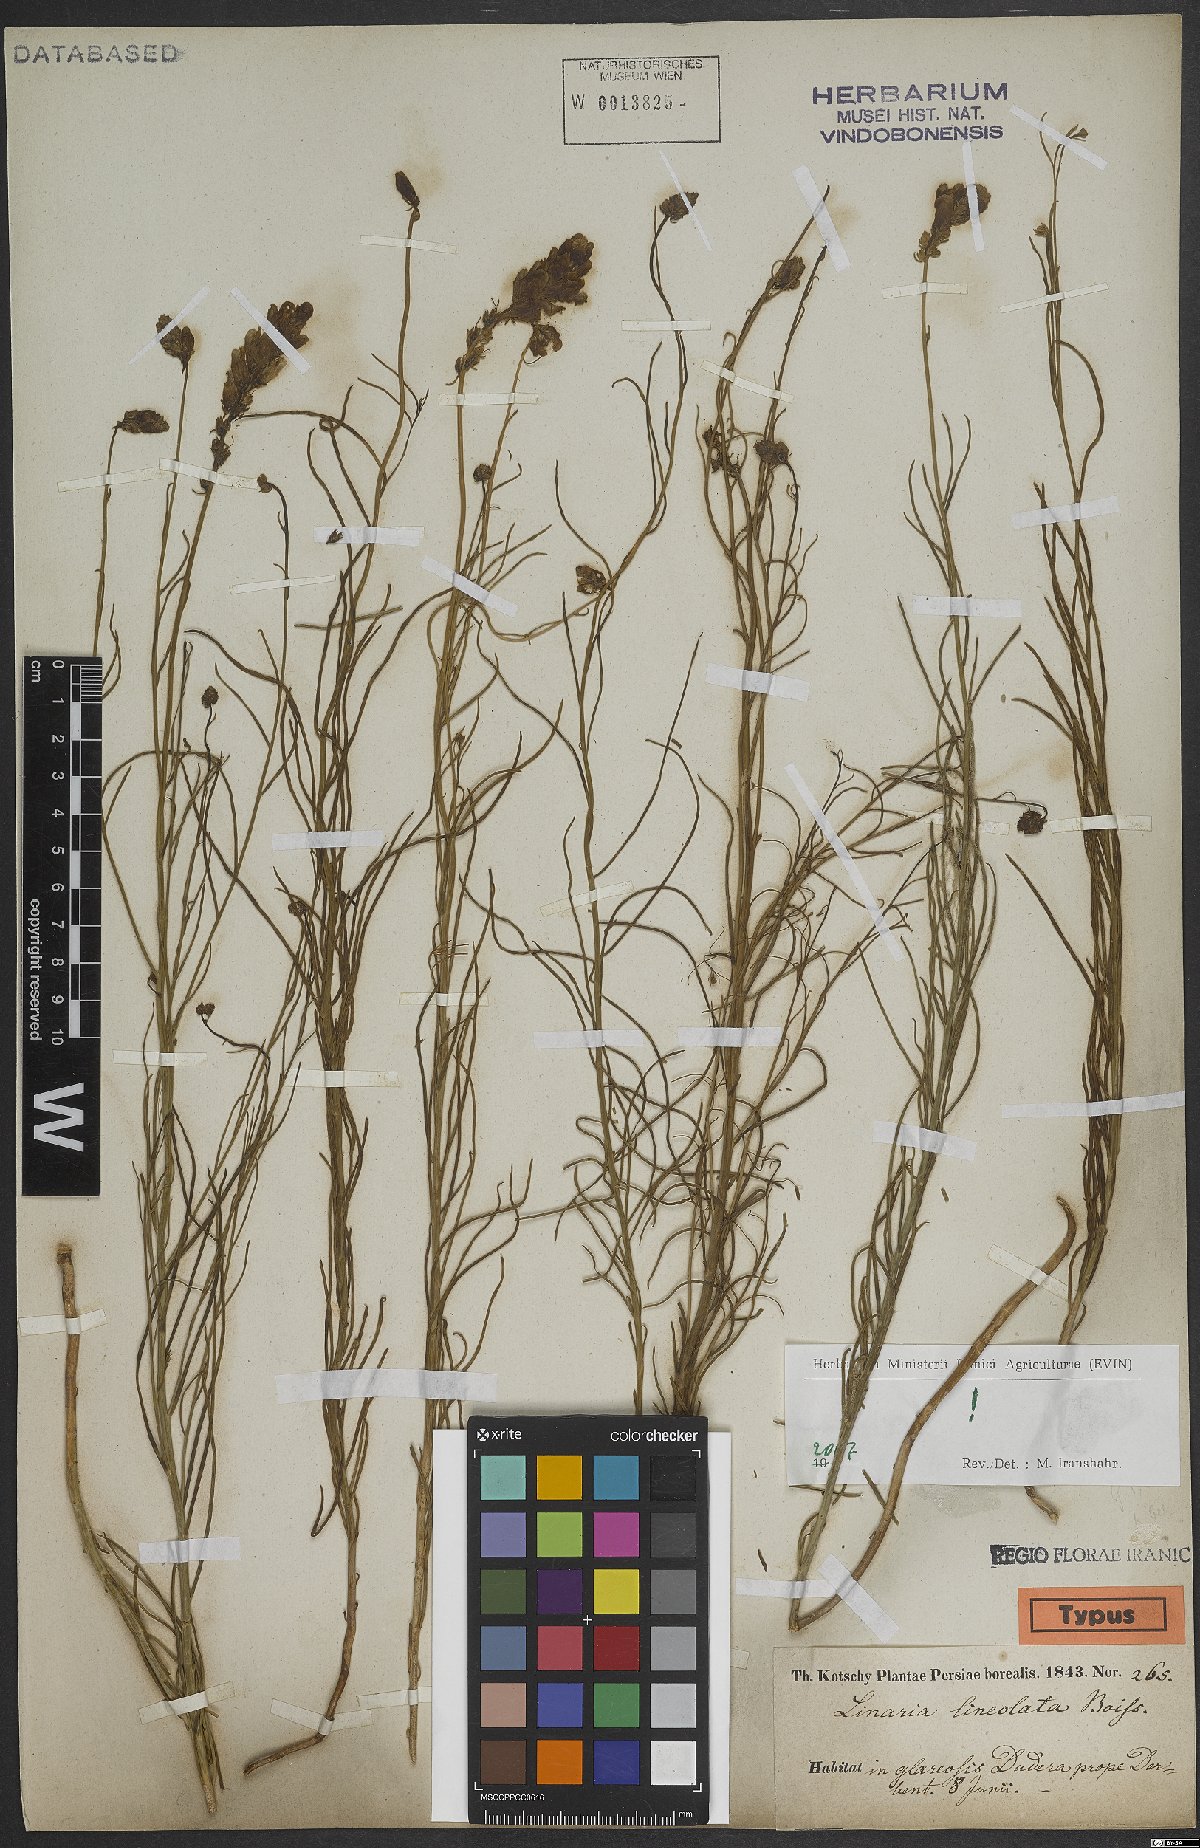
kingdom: Plantae
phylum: Tracheophyta
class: Magnoliopsida
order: Lamiales
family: Plantaginaceae
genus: Linaria
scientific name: Linaria lineolata
